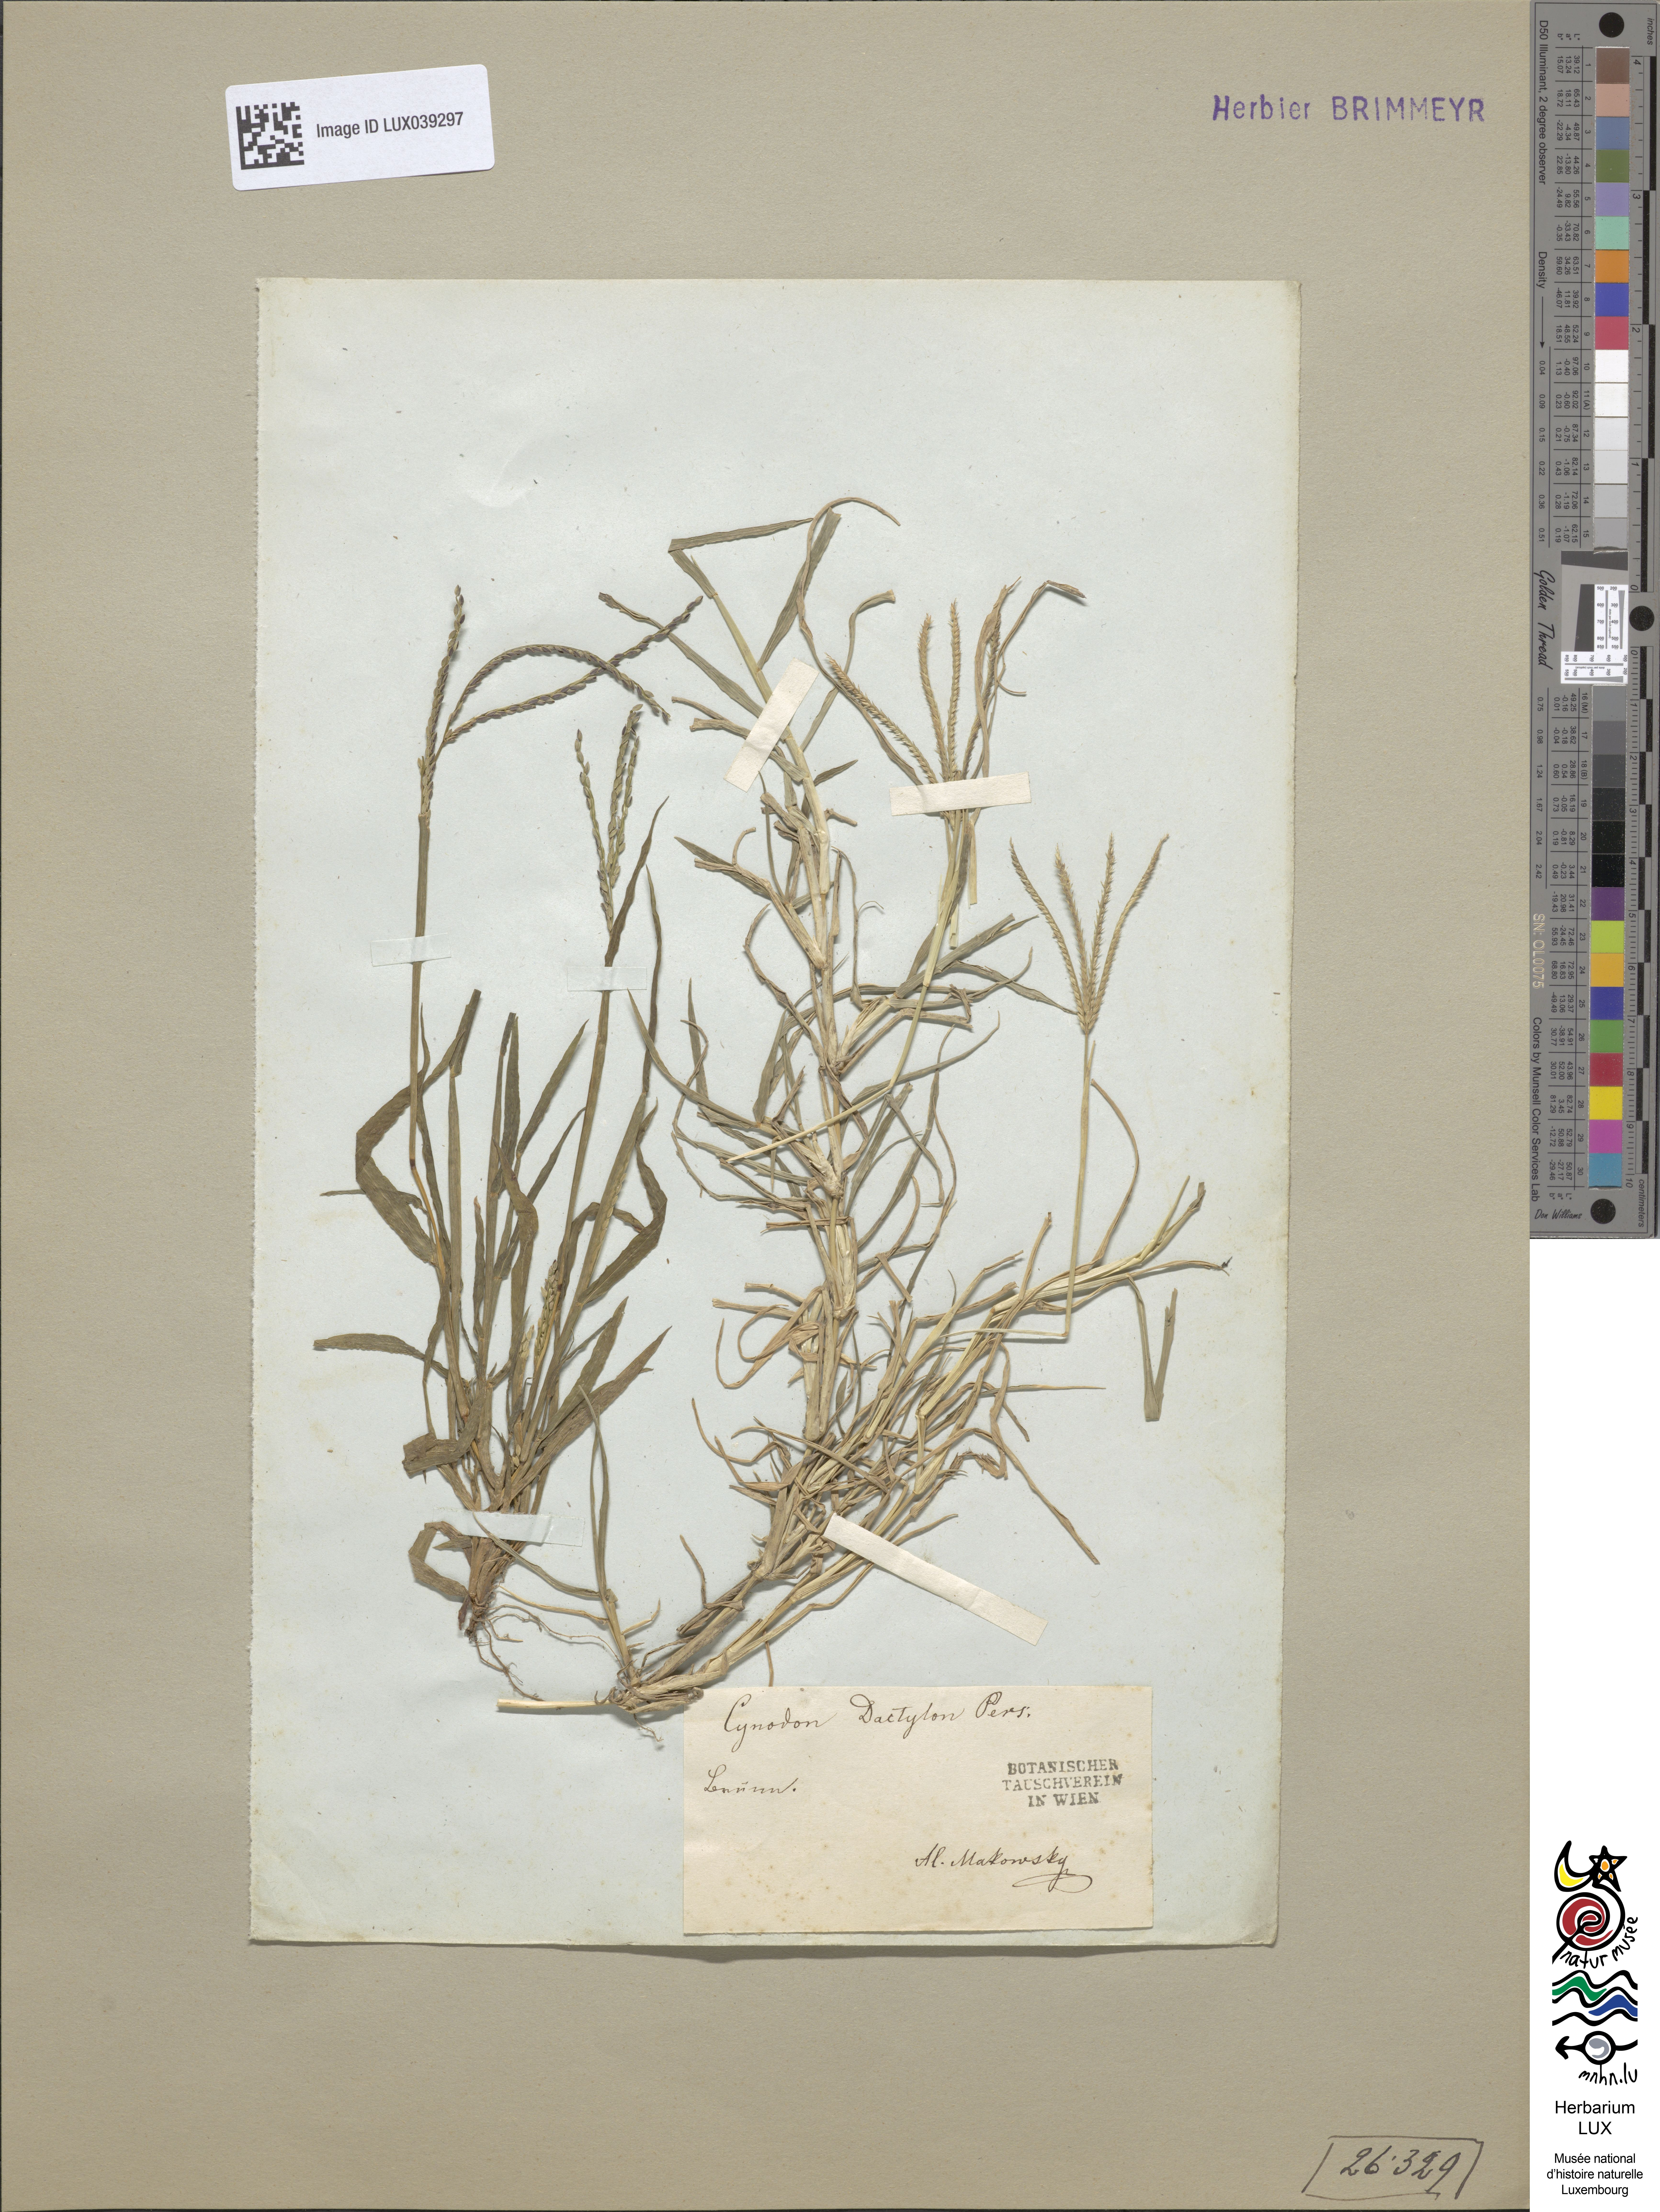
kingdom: Plantae
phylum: Tracheophyta
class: Liliopsida
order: Poales
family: Poaceae
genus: Cynodon
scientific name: Cynodon dactylon
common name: Bermuda grass
